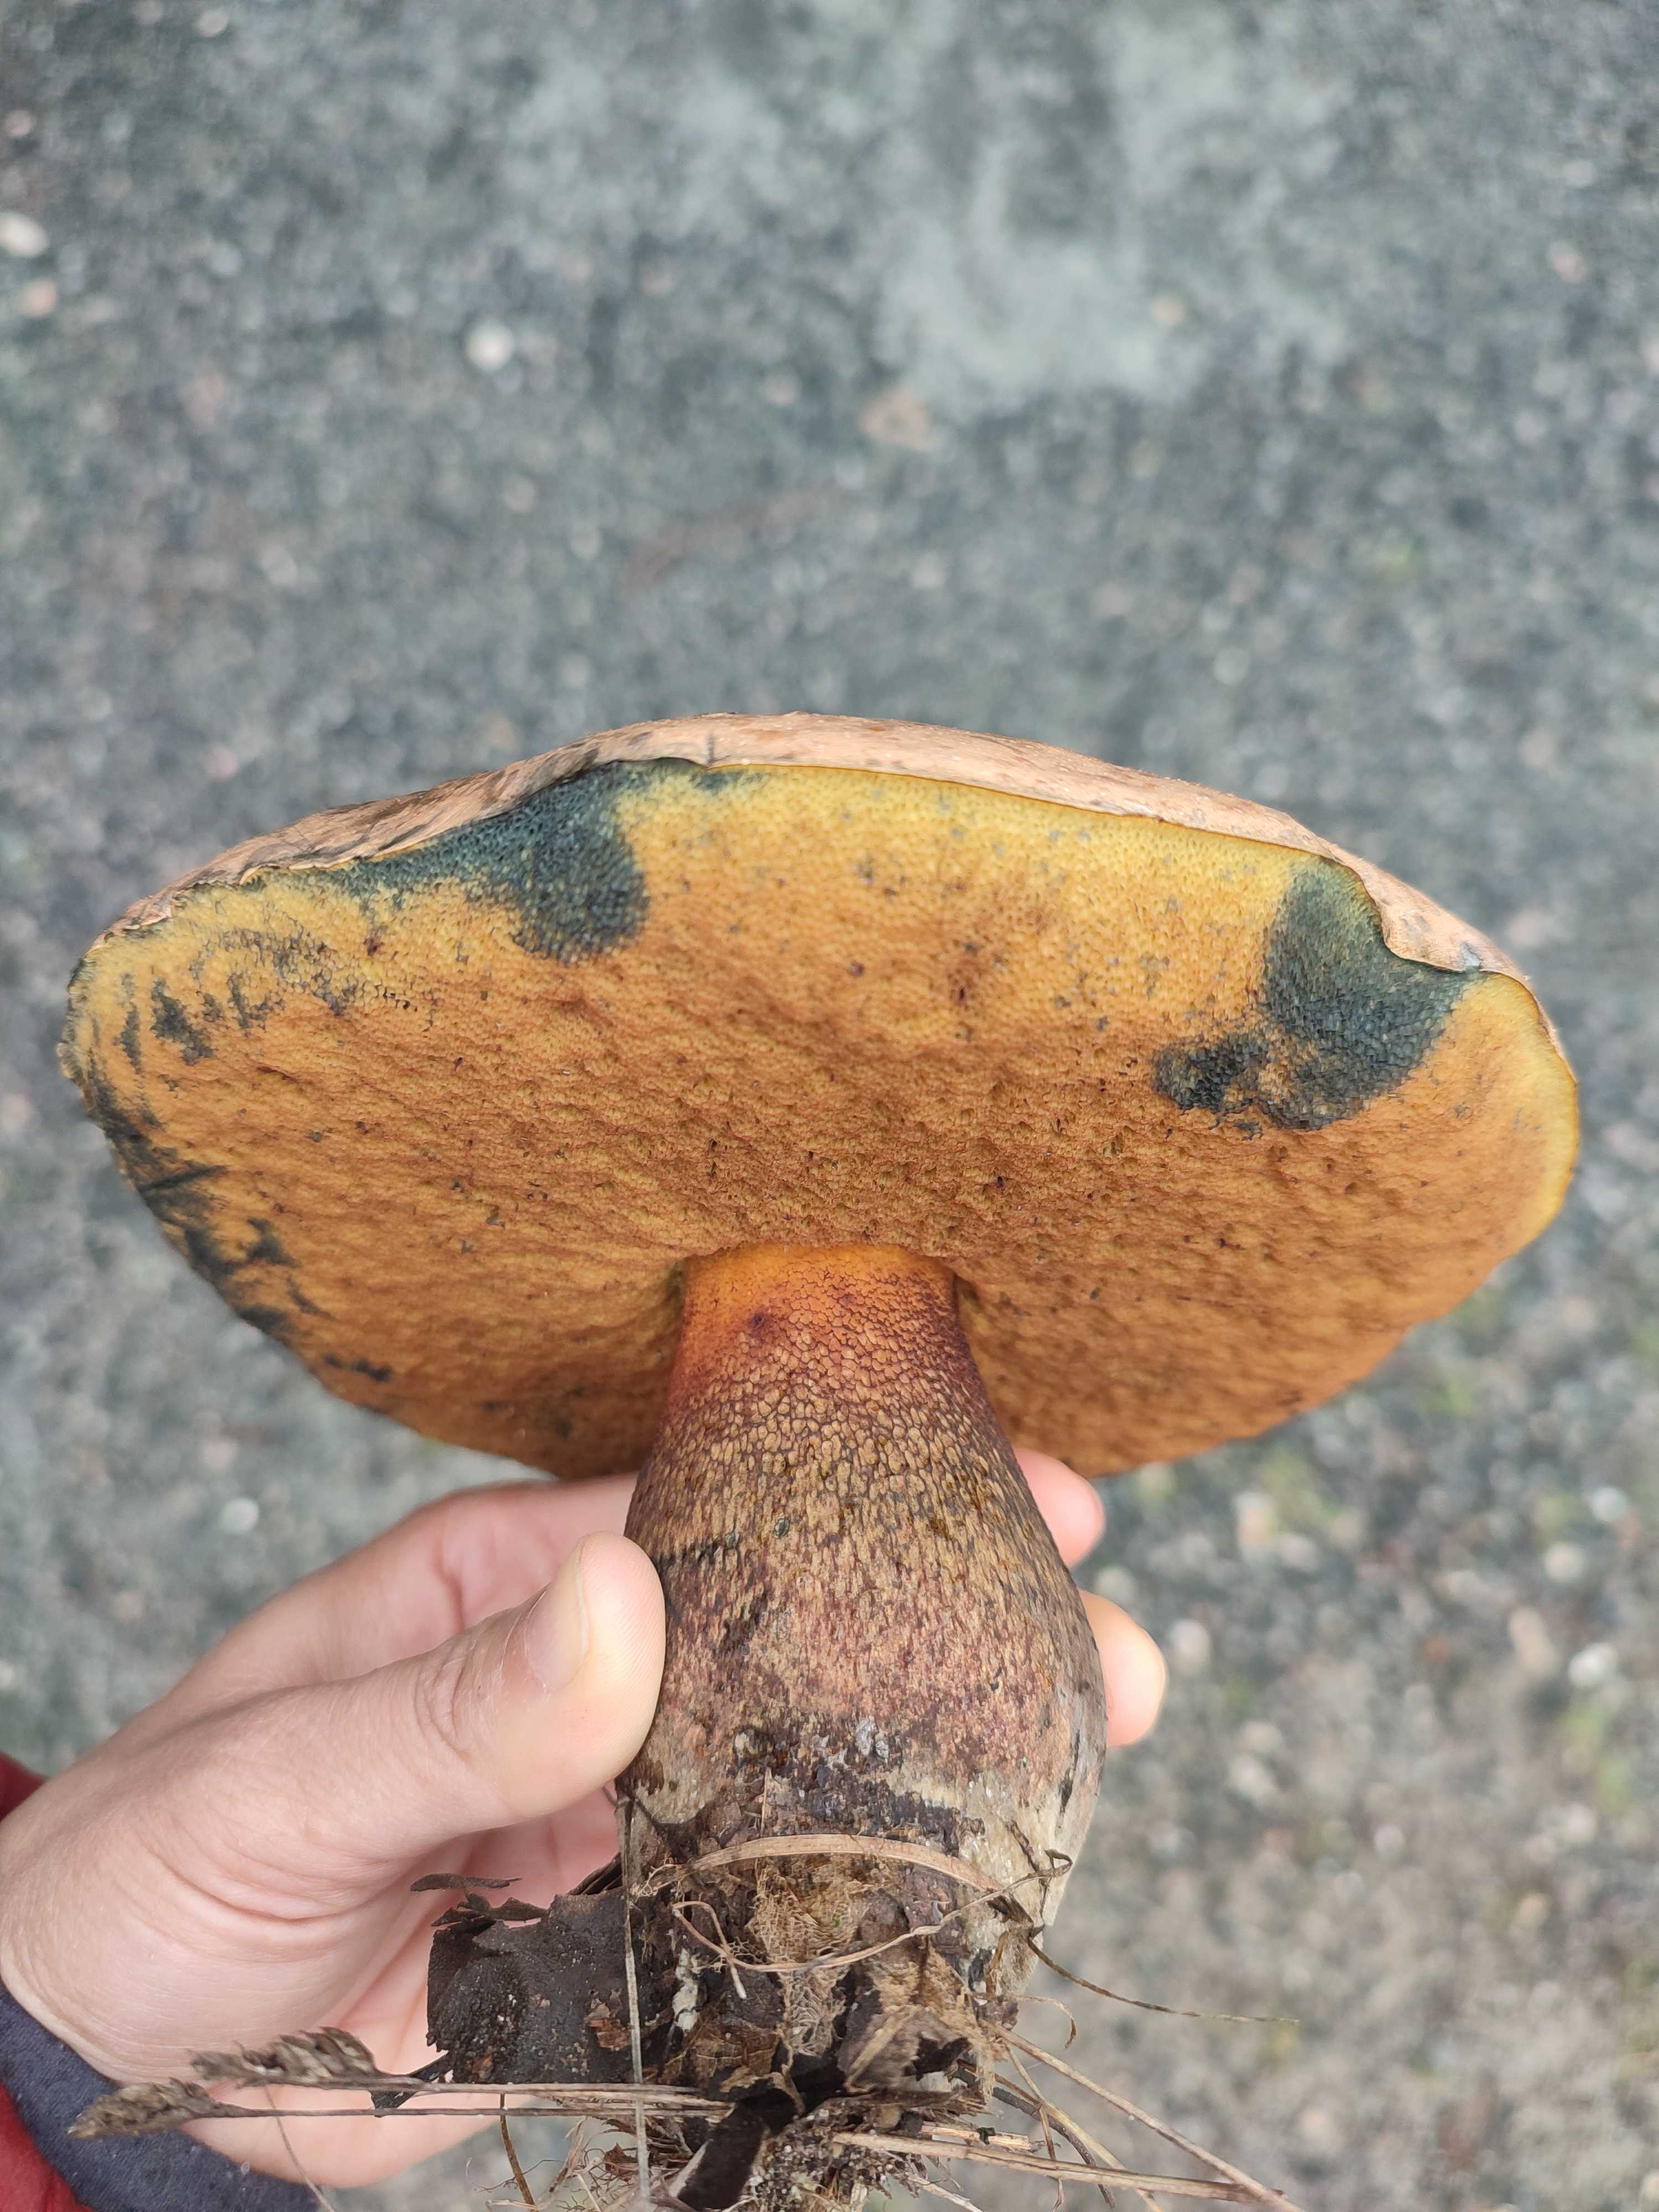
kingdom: Fungi
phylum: Basidiomycota
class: Agaricomycetes
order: Boletales
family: Boletaceae
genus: Suillellus
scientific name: Suillellus luridus
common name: netstokket indigorørhat
